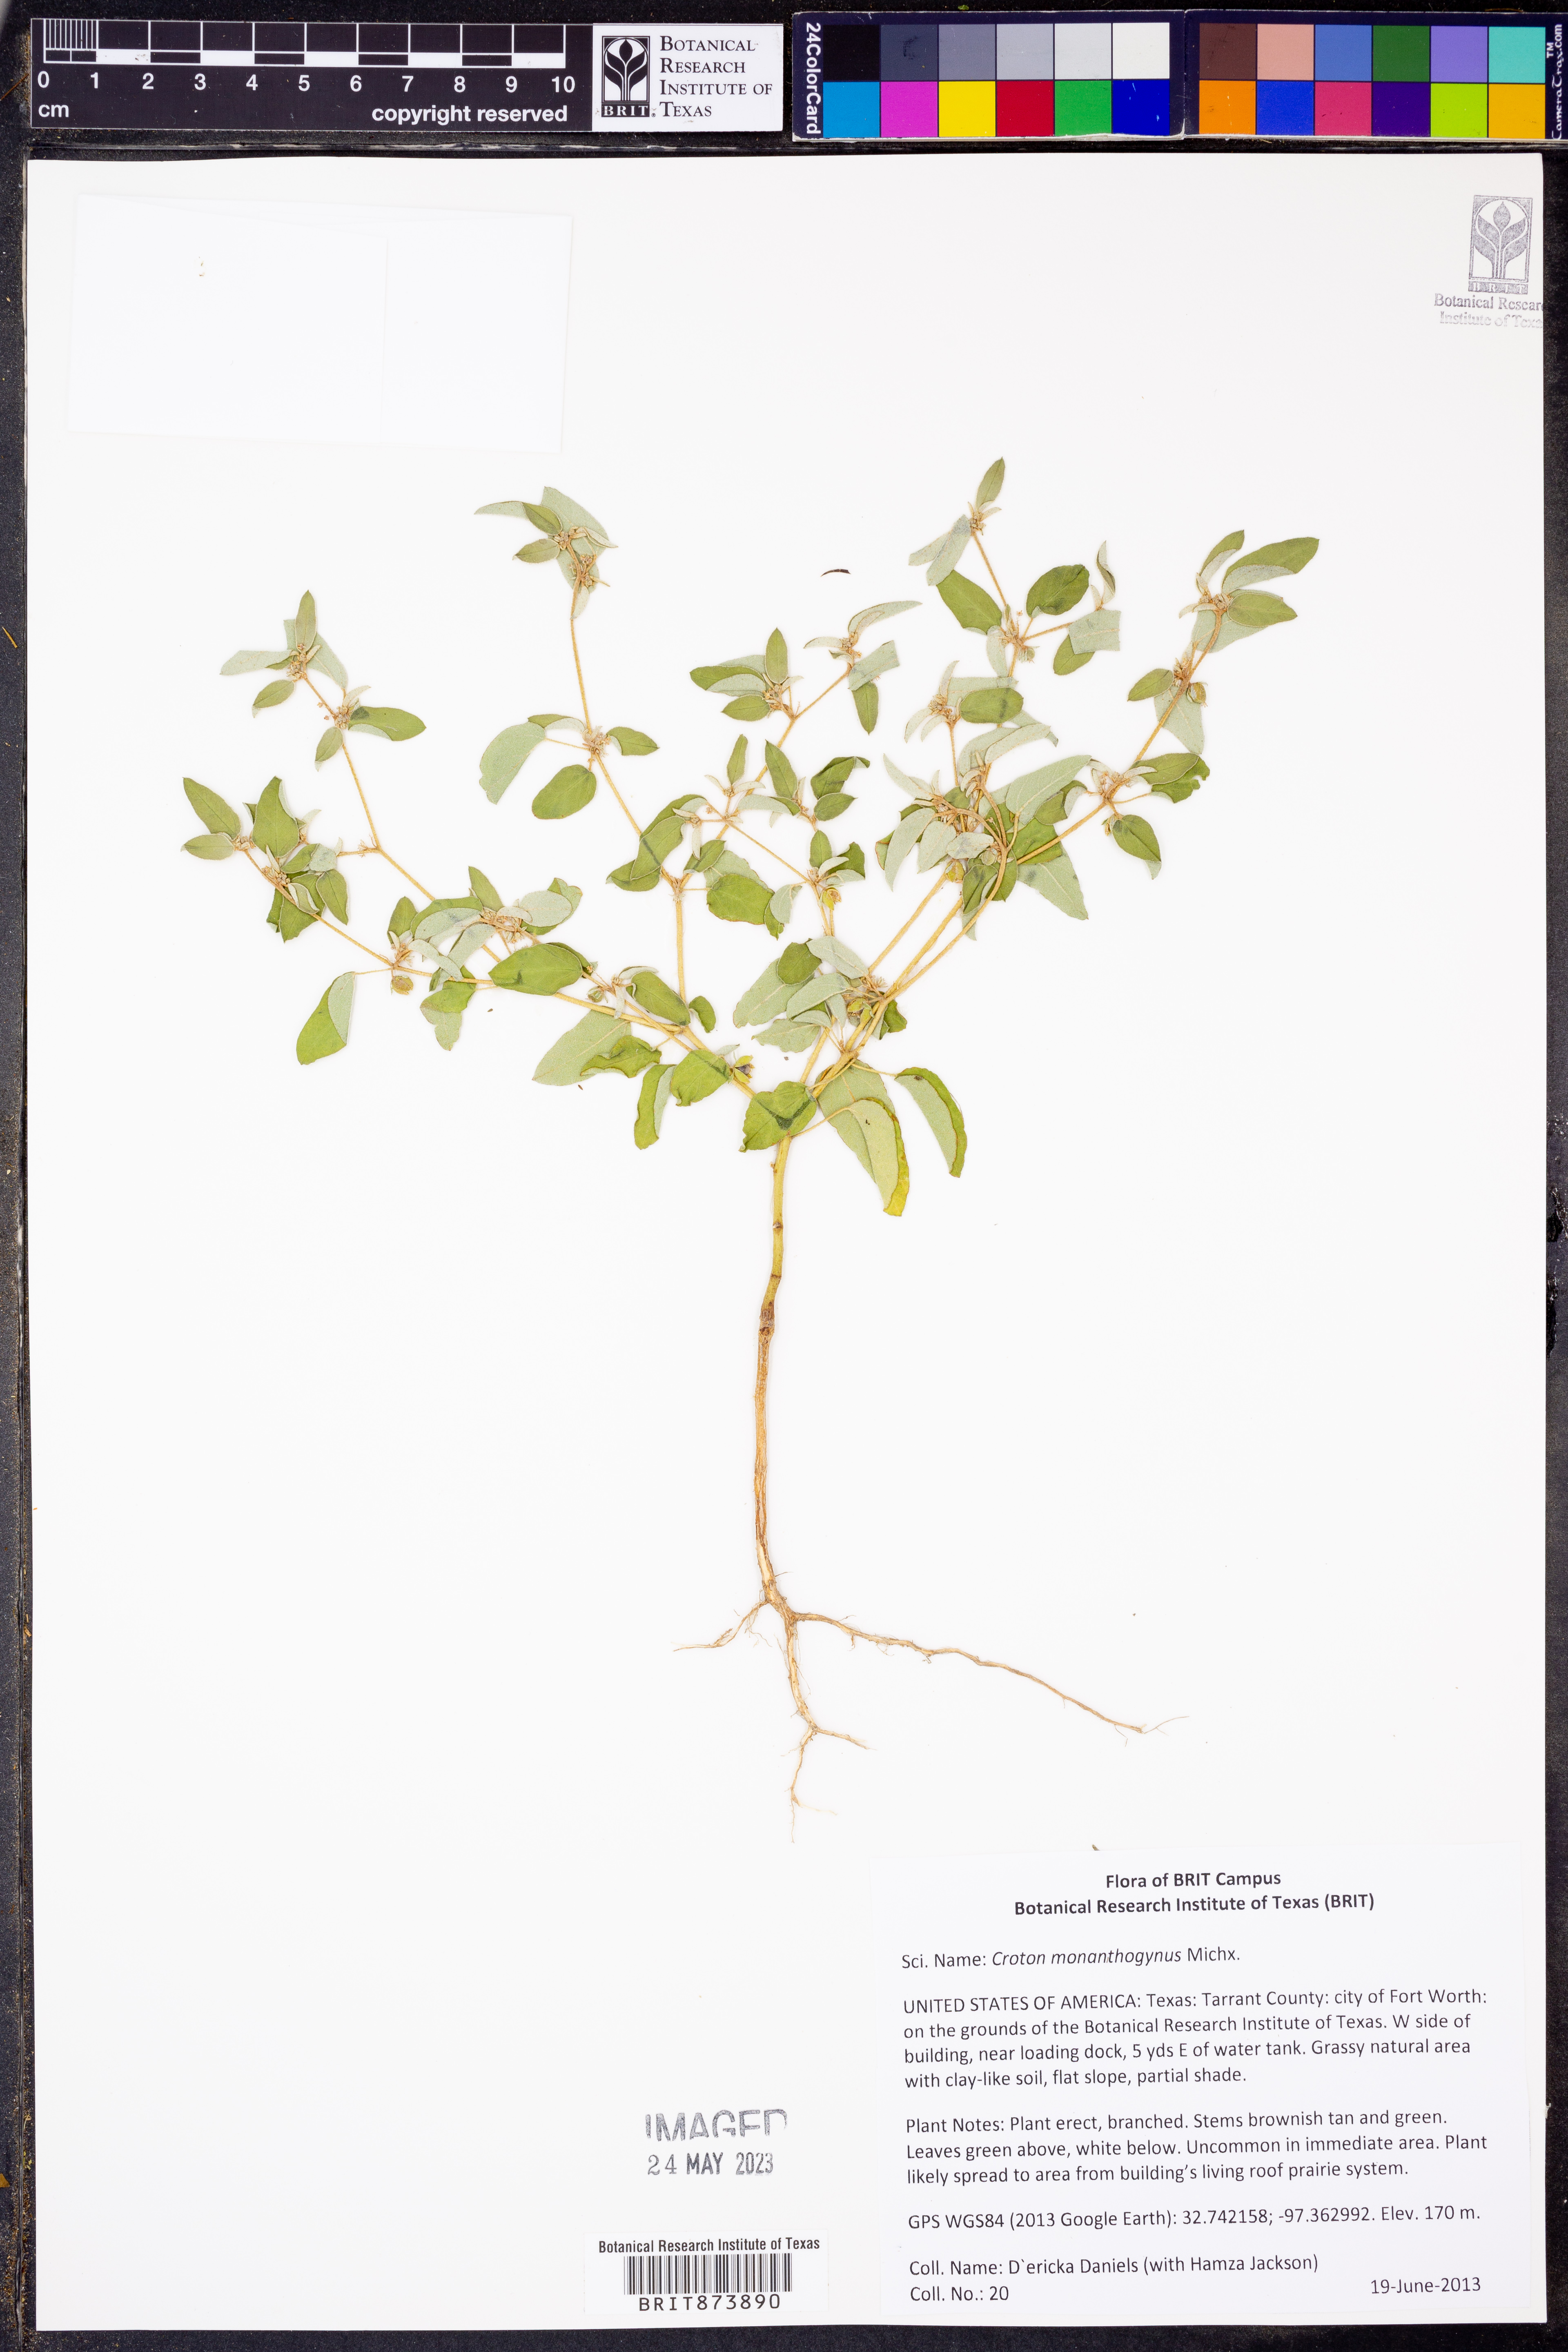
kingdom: Plantae
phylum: Tracheophyta
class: Magnoliopsida
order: Malpighiales
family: Euphorbiaceae
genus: Croton
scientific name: Croton monanthogynus
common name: One-seed croton
